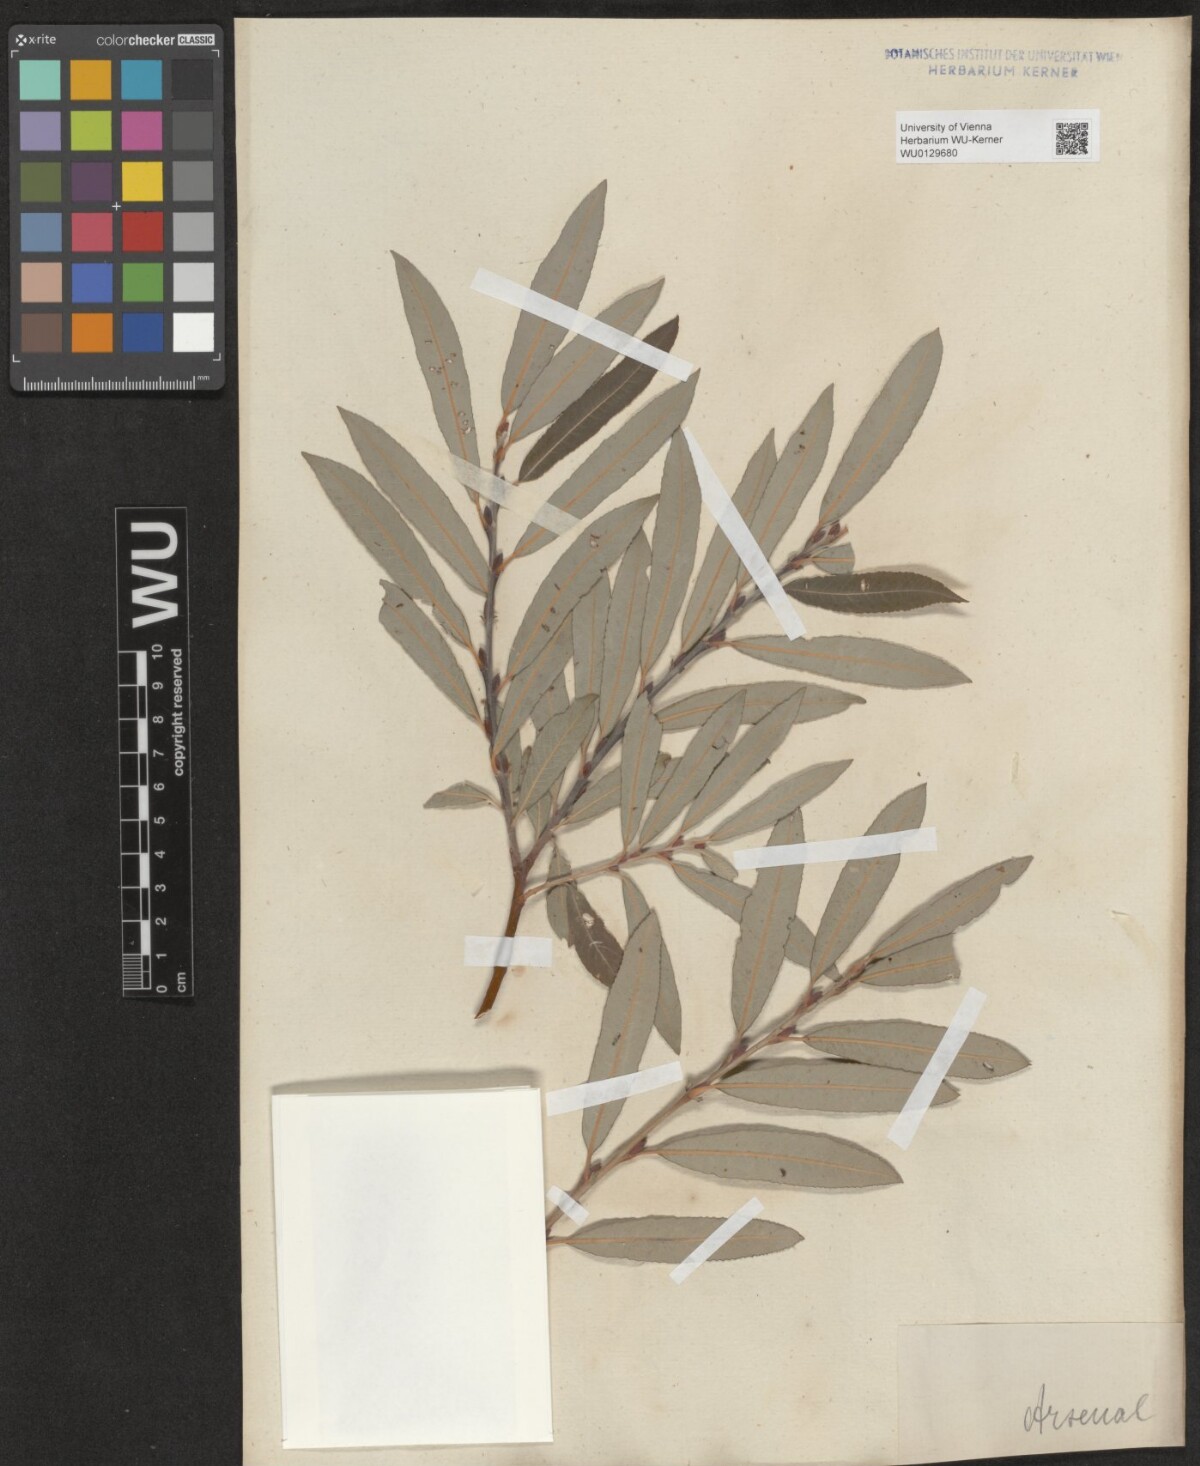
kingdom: Plantae
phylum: Tracheophyta
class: Magnoliopsida
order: Malpighiales
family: Salicaceae
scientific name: Salicaceae
